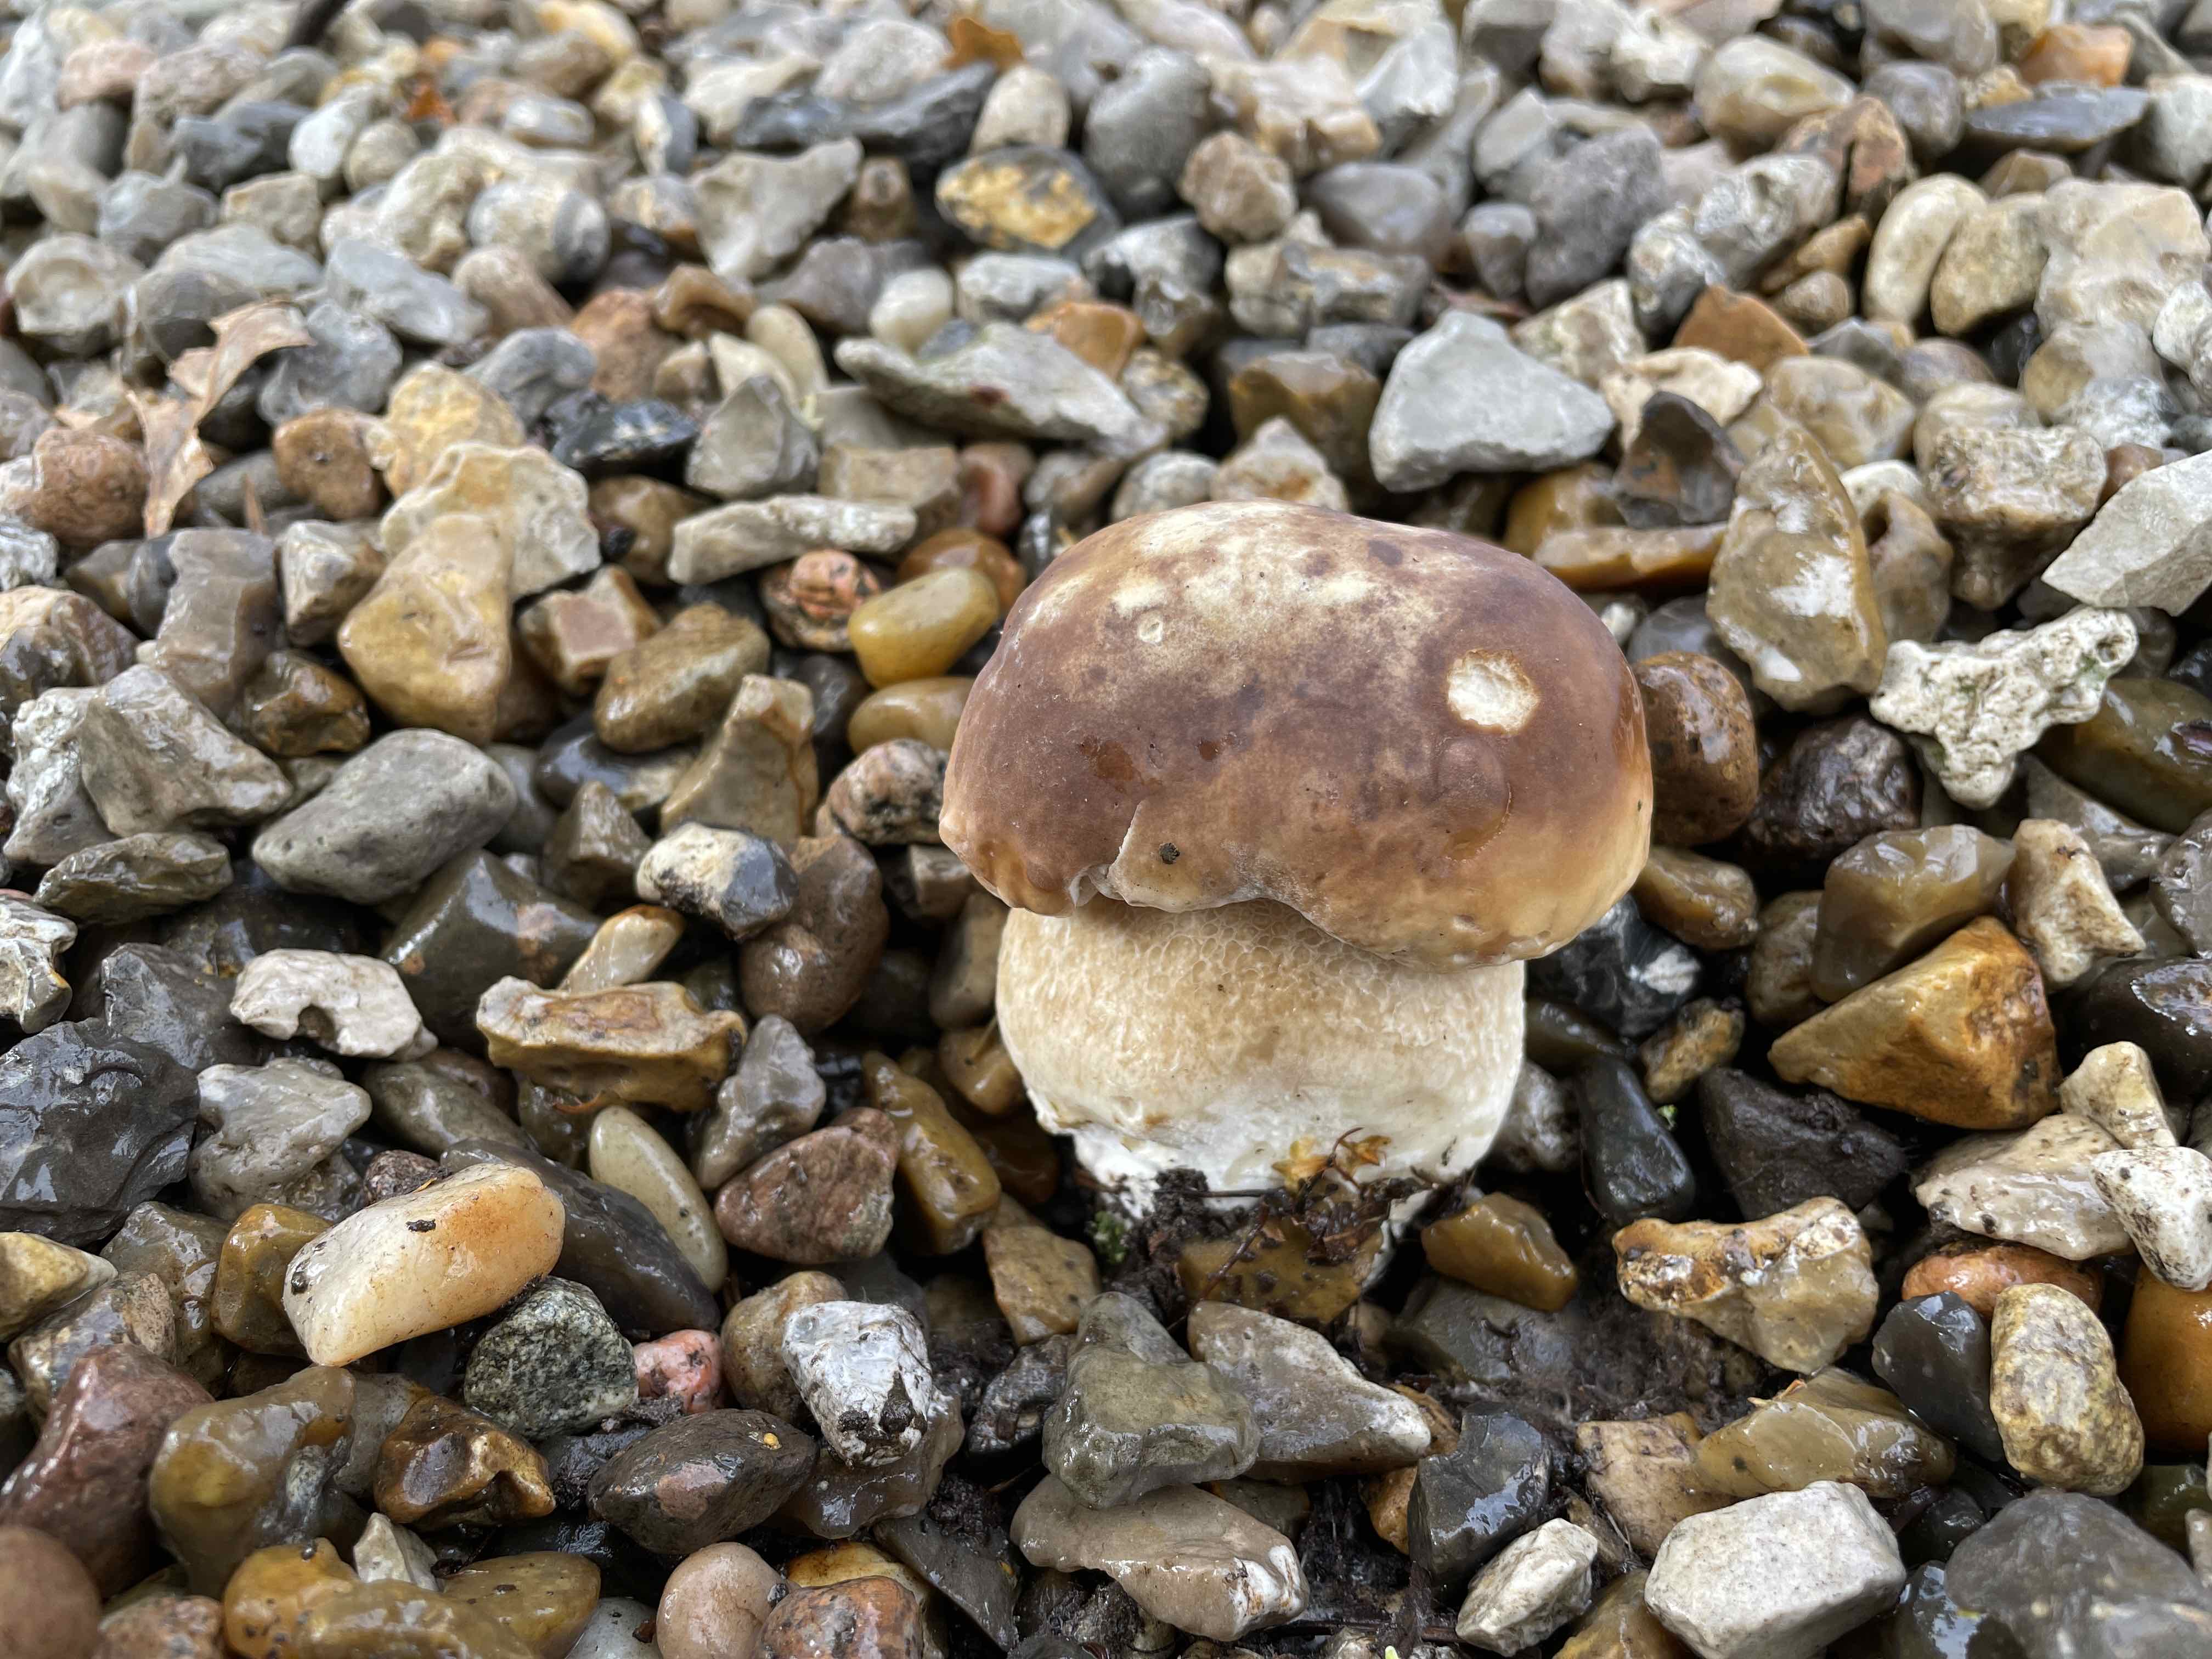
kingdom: Fungi
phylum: Basidiomycota
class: Agaricomycetes
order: Boletales
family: Boletaceae
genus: Boletus
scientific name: Boletus edulis
